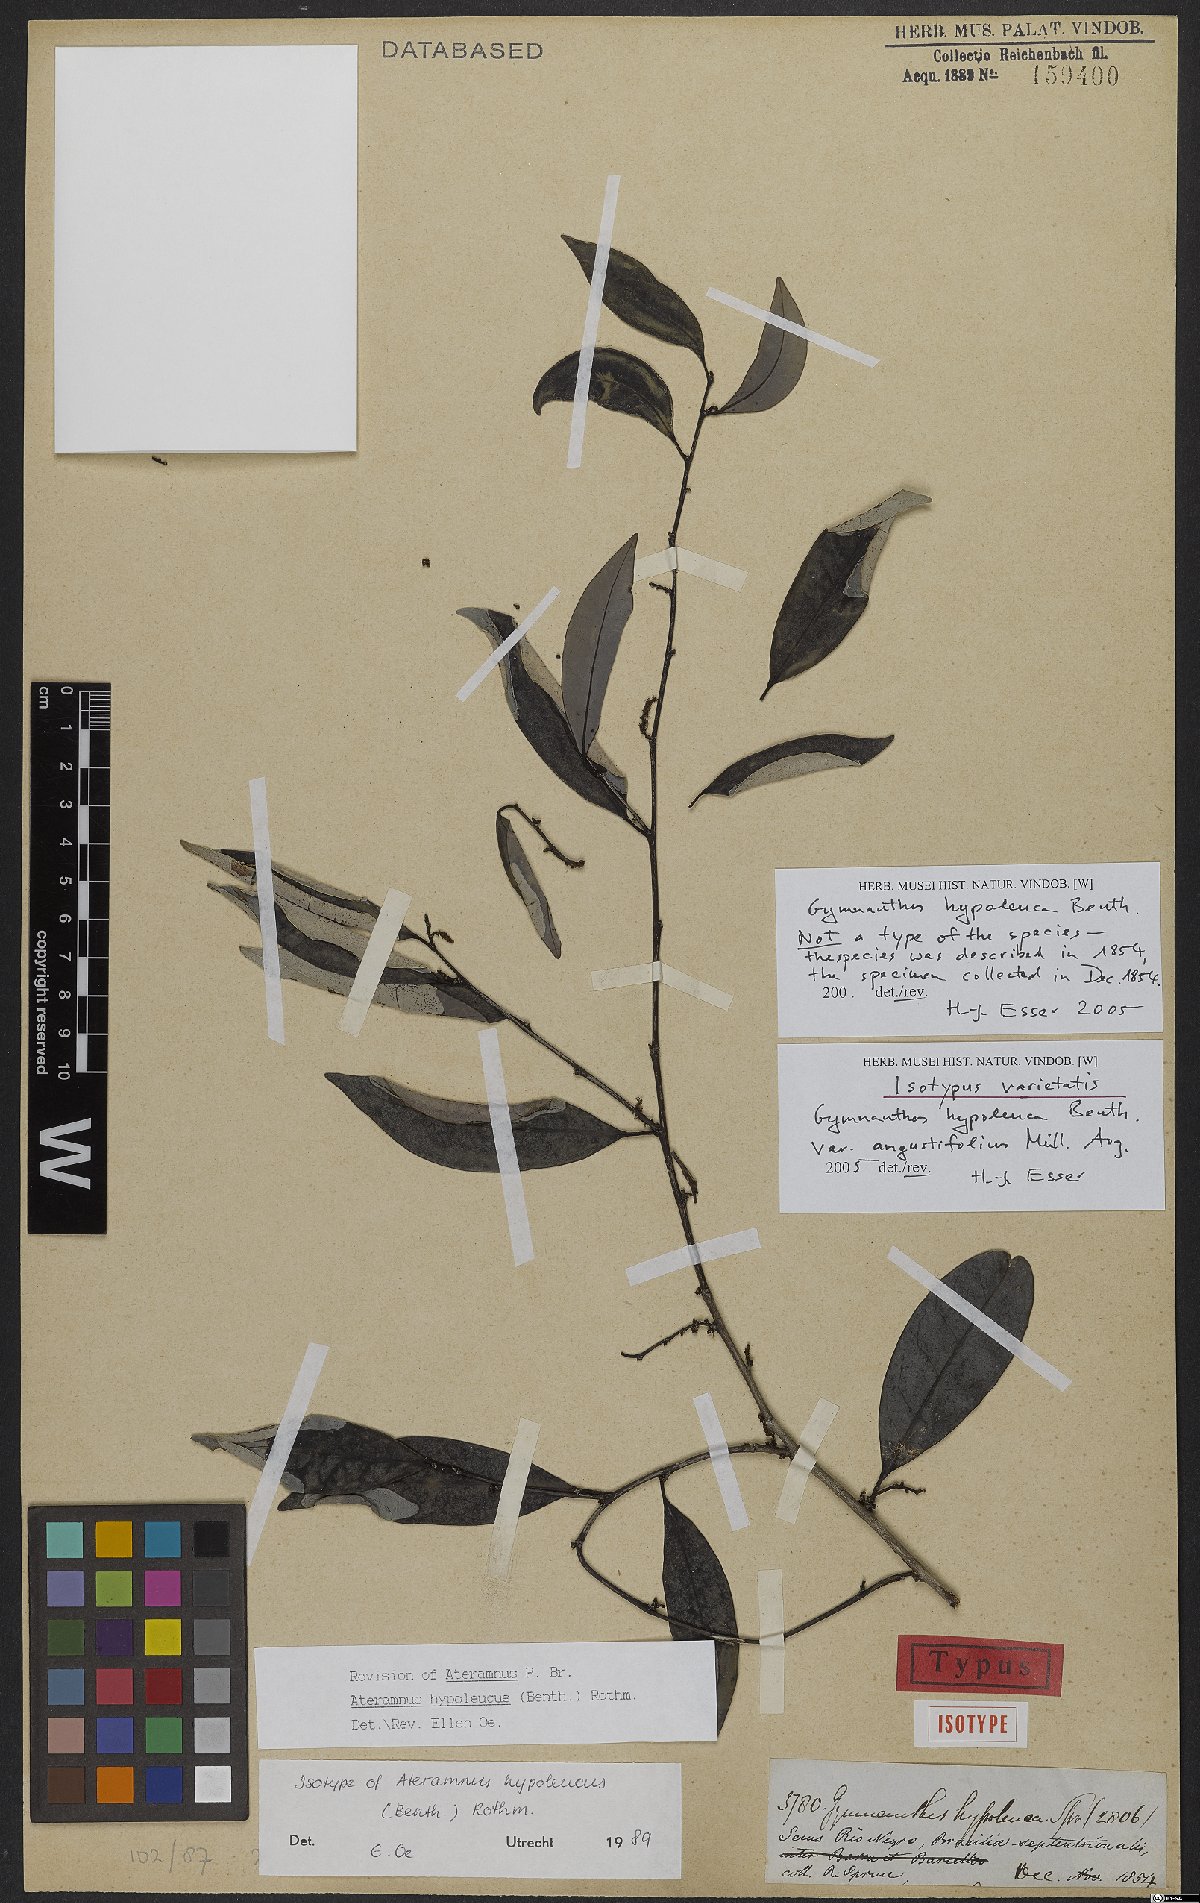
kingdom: Plantae
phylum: Tracheophyta
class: Magnoliopsida
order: Malpighiales
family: Euphorbiaceae
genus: Gymnanthes
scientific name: Gymnanthes hypoleuca
